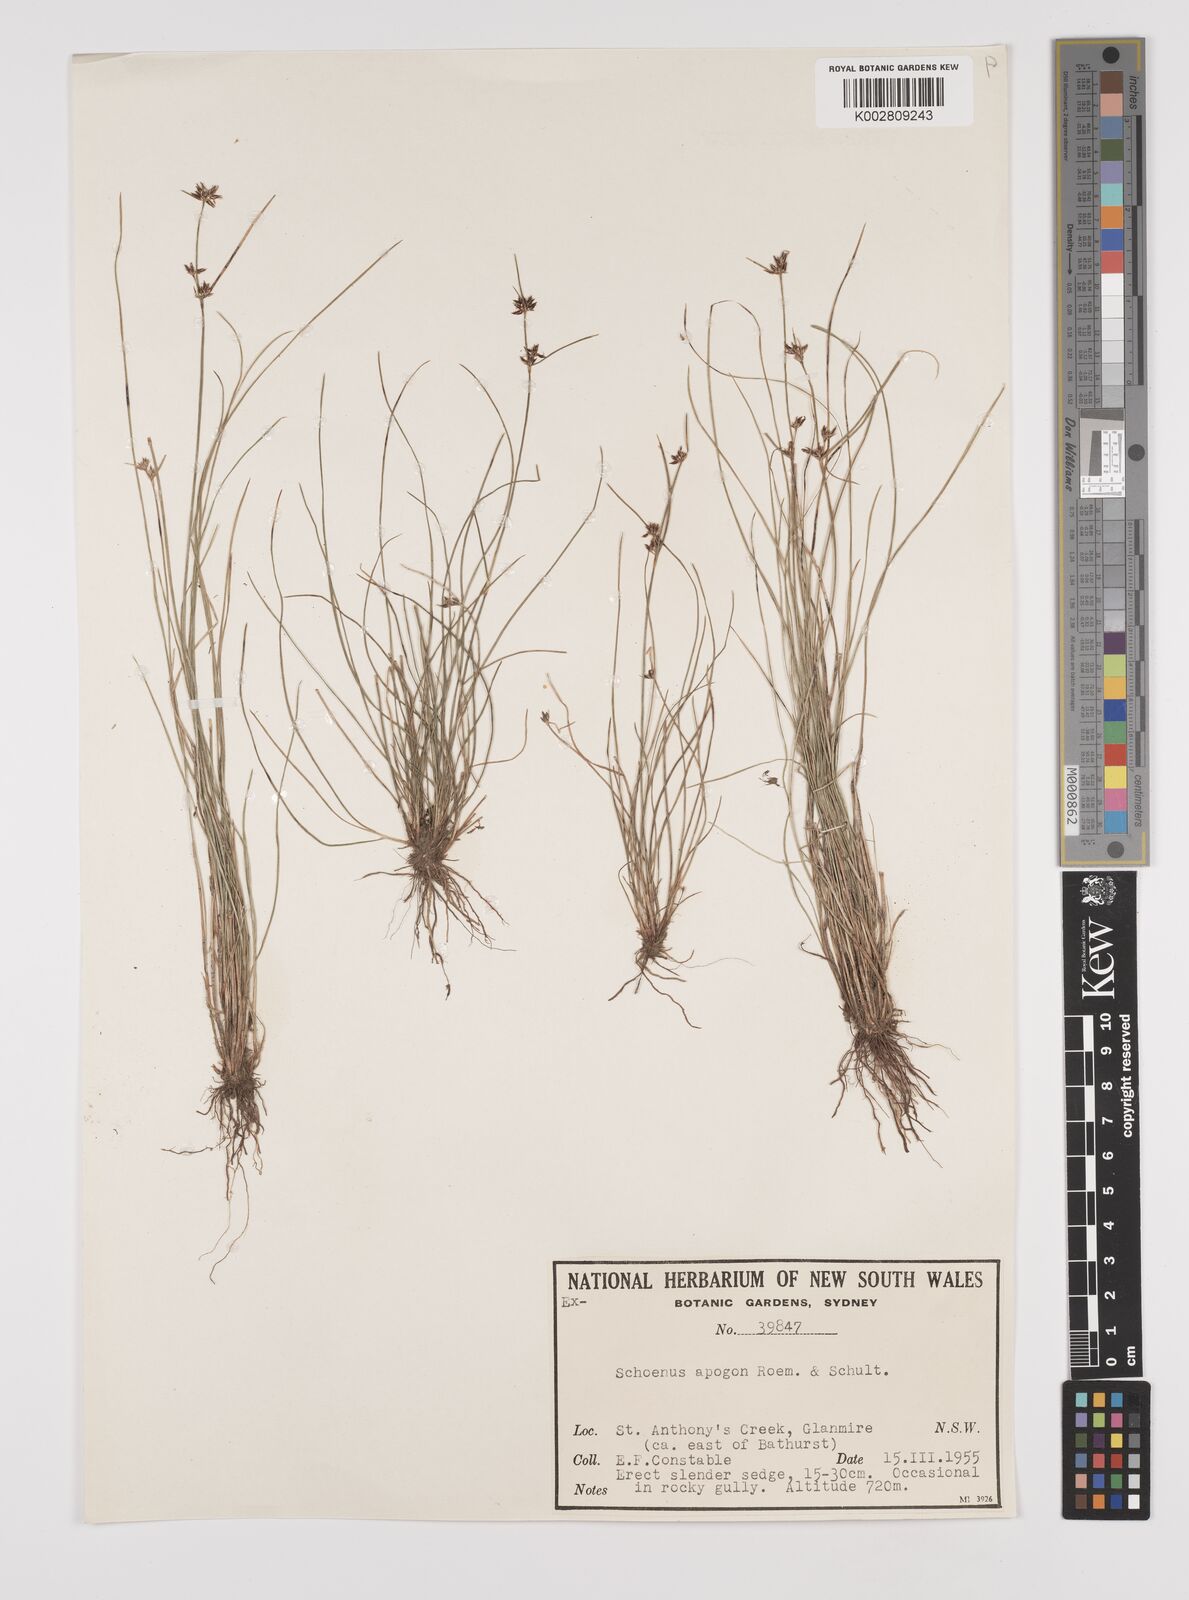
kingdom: Plantae
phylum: Tracheophyta
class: Liliopsida
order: Poales
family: Cyperaceae
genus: Schoenus
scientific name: Schoenus apogon
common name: Smooth bogrush
